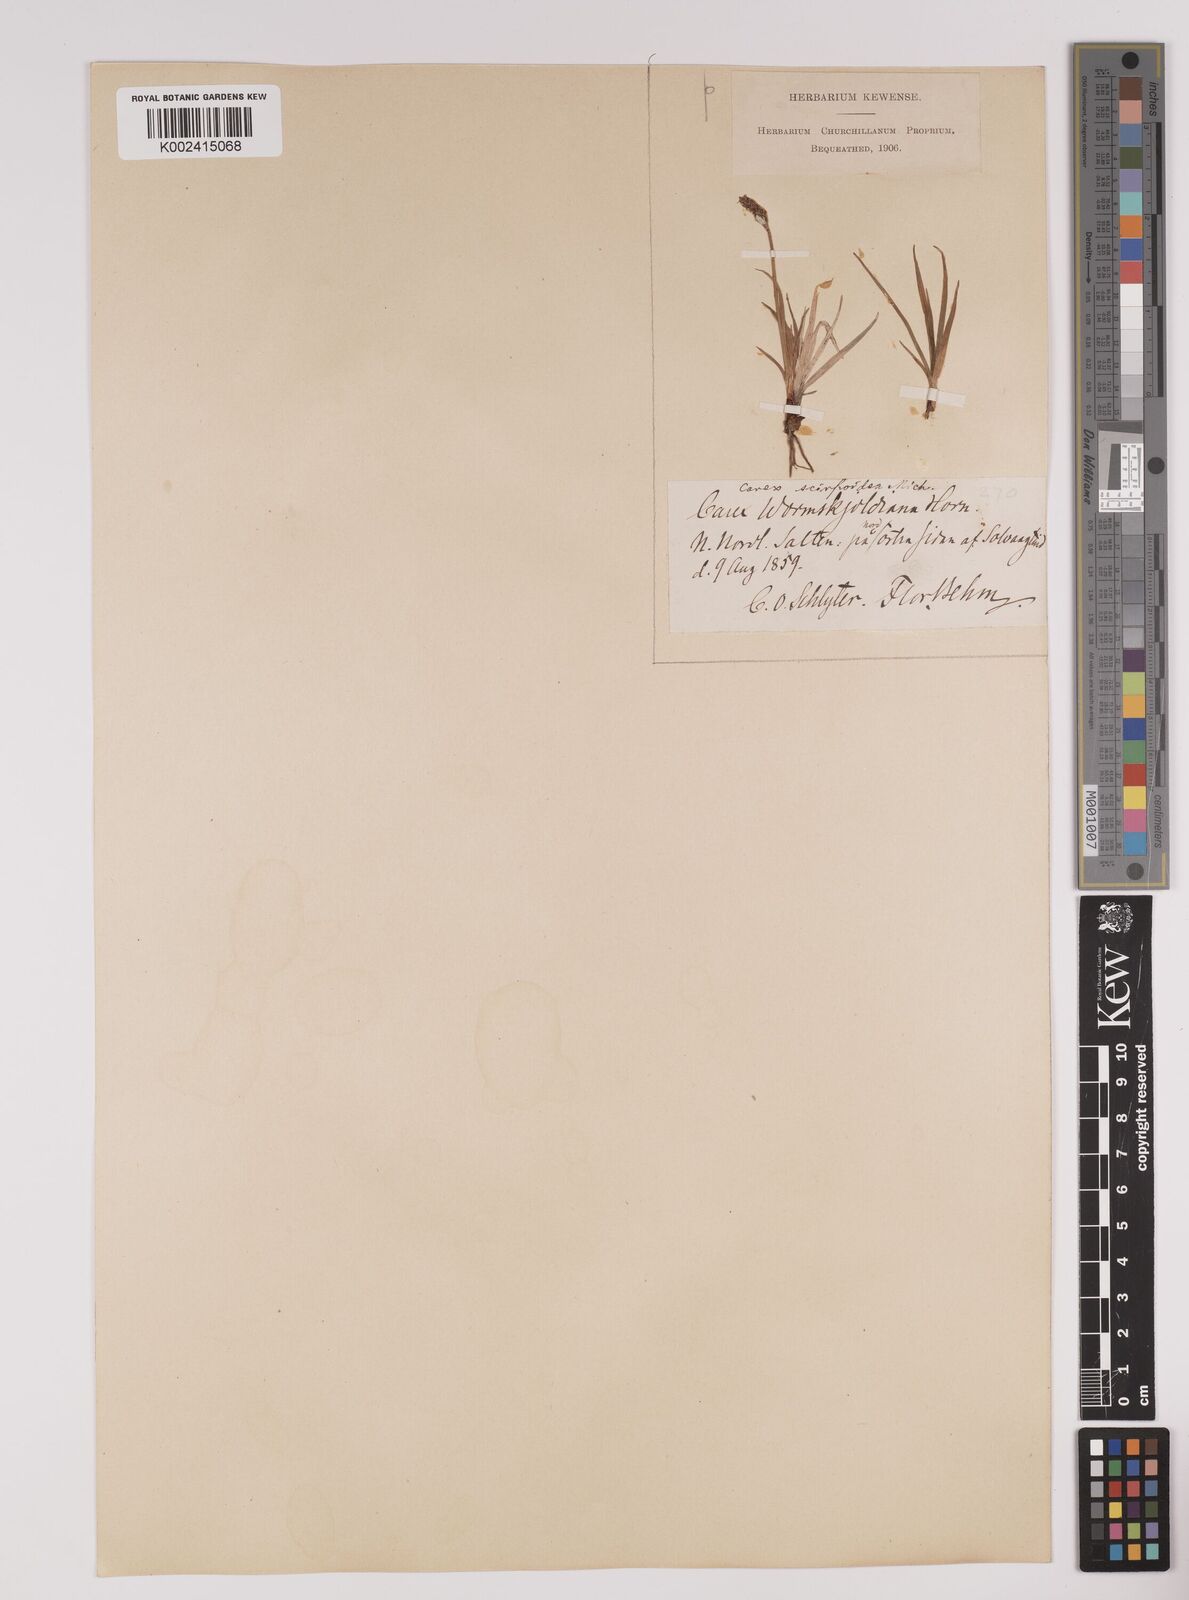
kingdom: Plantae
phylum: Tracheophyta
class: Liliopsida
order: Poales
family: Cyperaceae
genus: Carex
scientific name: Carex
